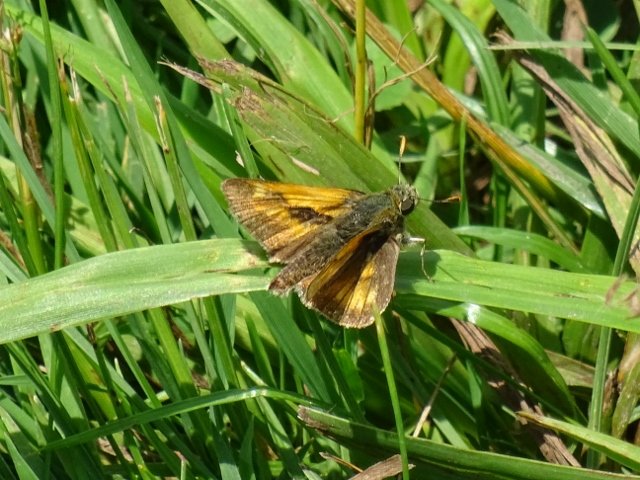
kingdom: Animalia
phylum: Arthropoda
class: Insecta
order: Lepidoptera
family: Hesperiidae
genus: Polites
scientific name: Polites
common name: Long Dash Skipper
